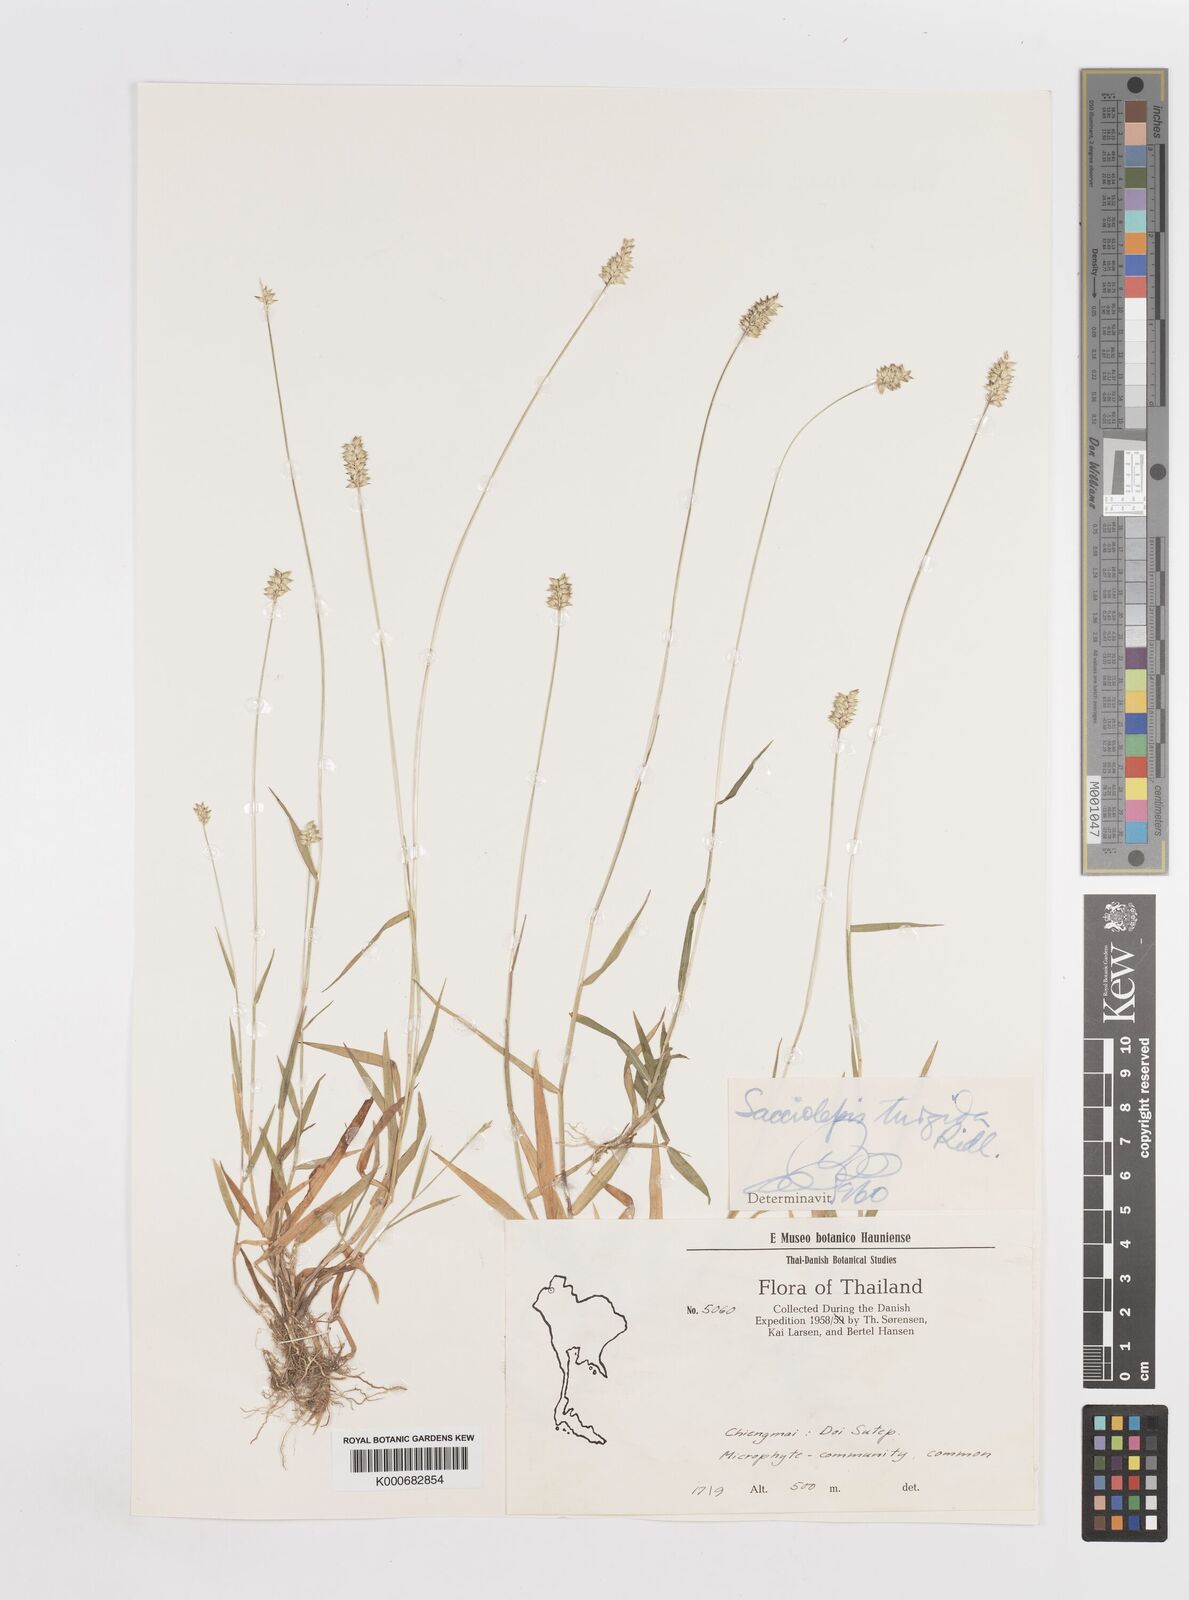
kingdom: Plantae
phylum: Tracheophyta
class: Liliopsida
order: Poales
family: Poaceae
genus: Sacciolepis
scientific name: Sacciolepis indica
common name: Glenwoodgrass
